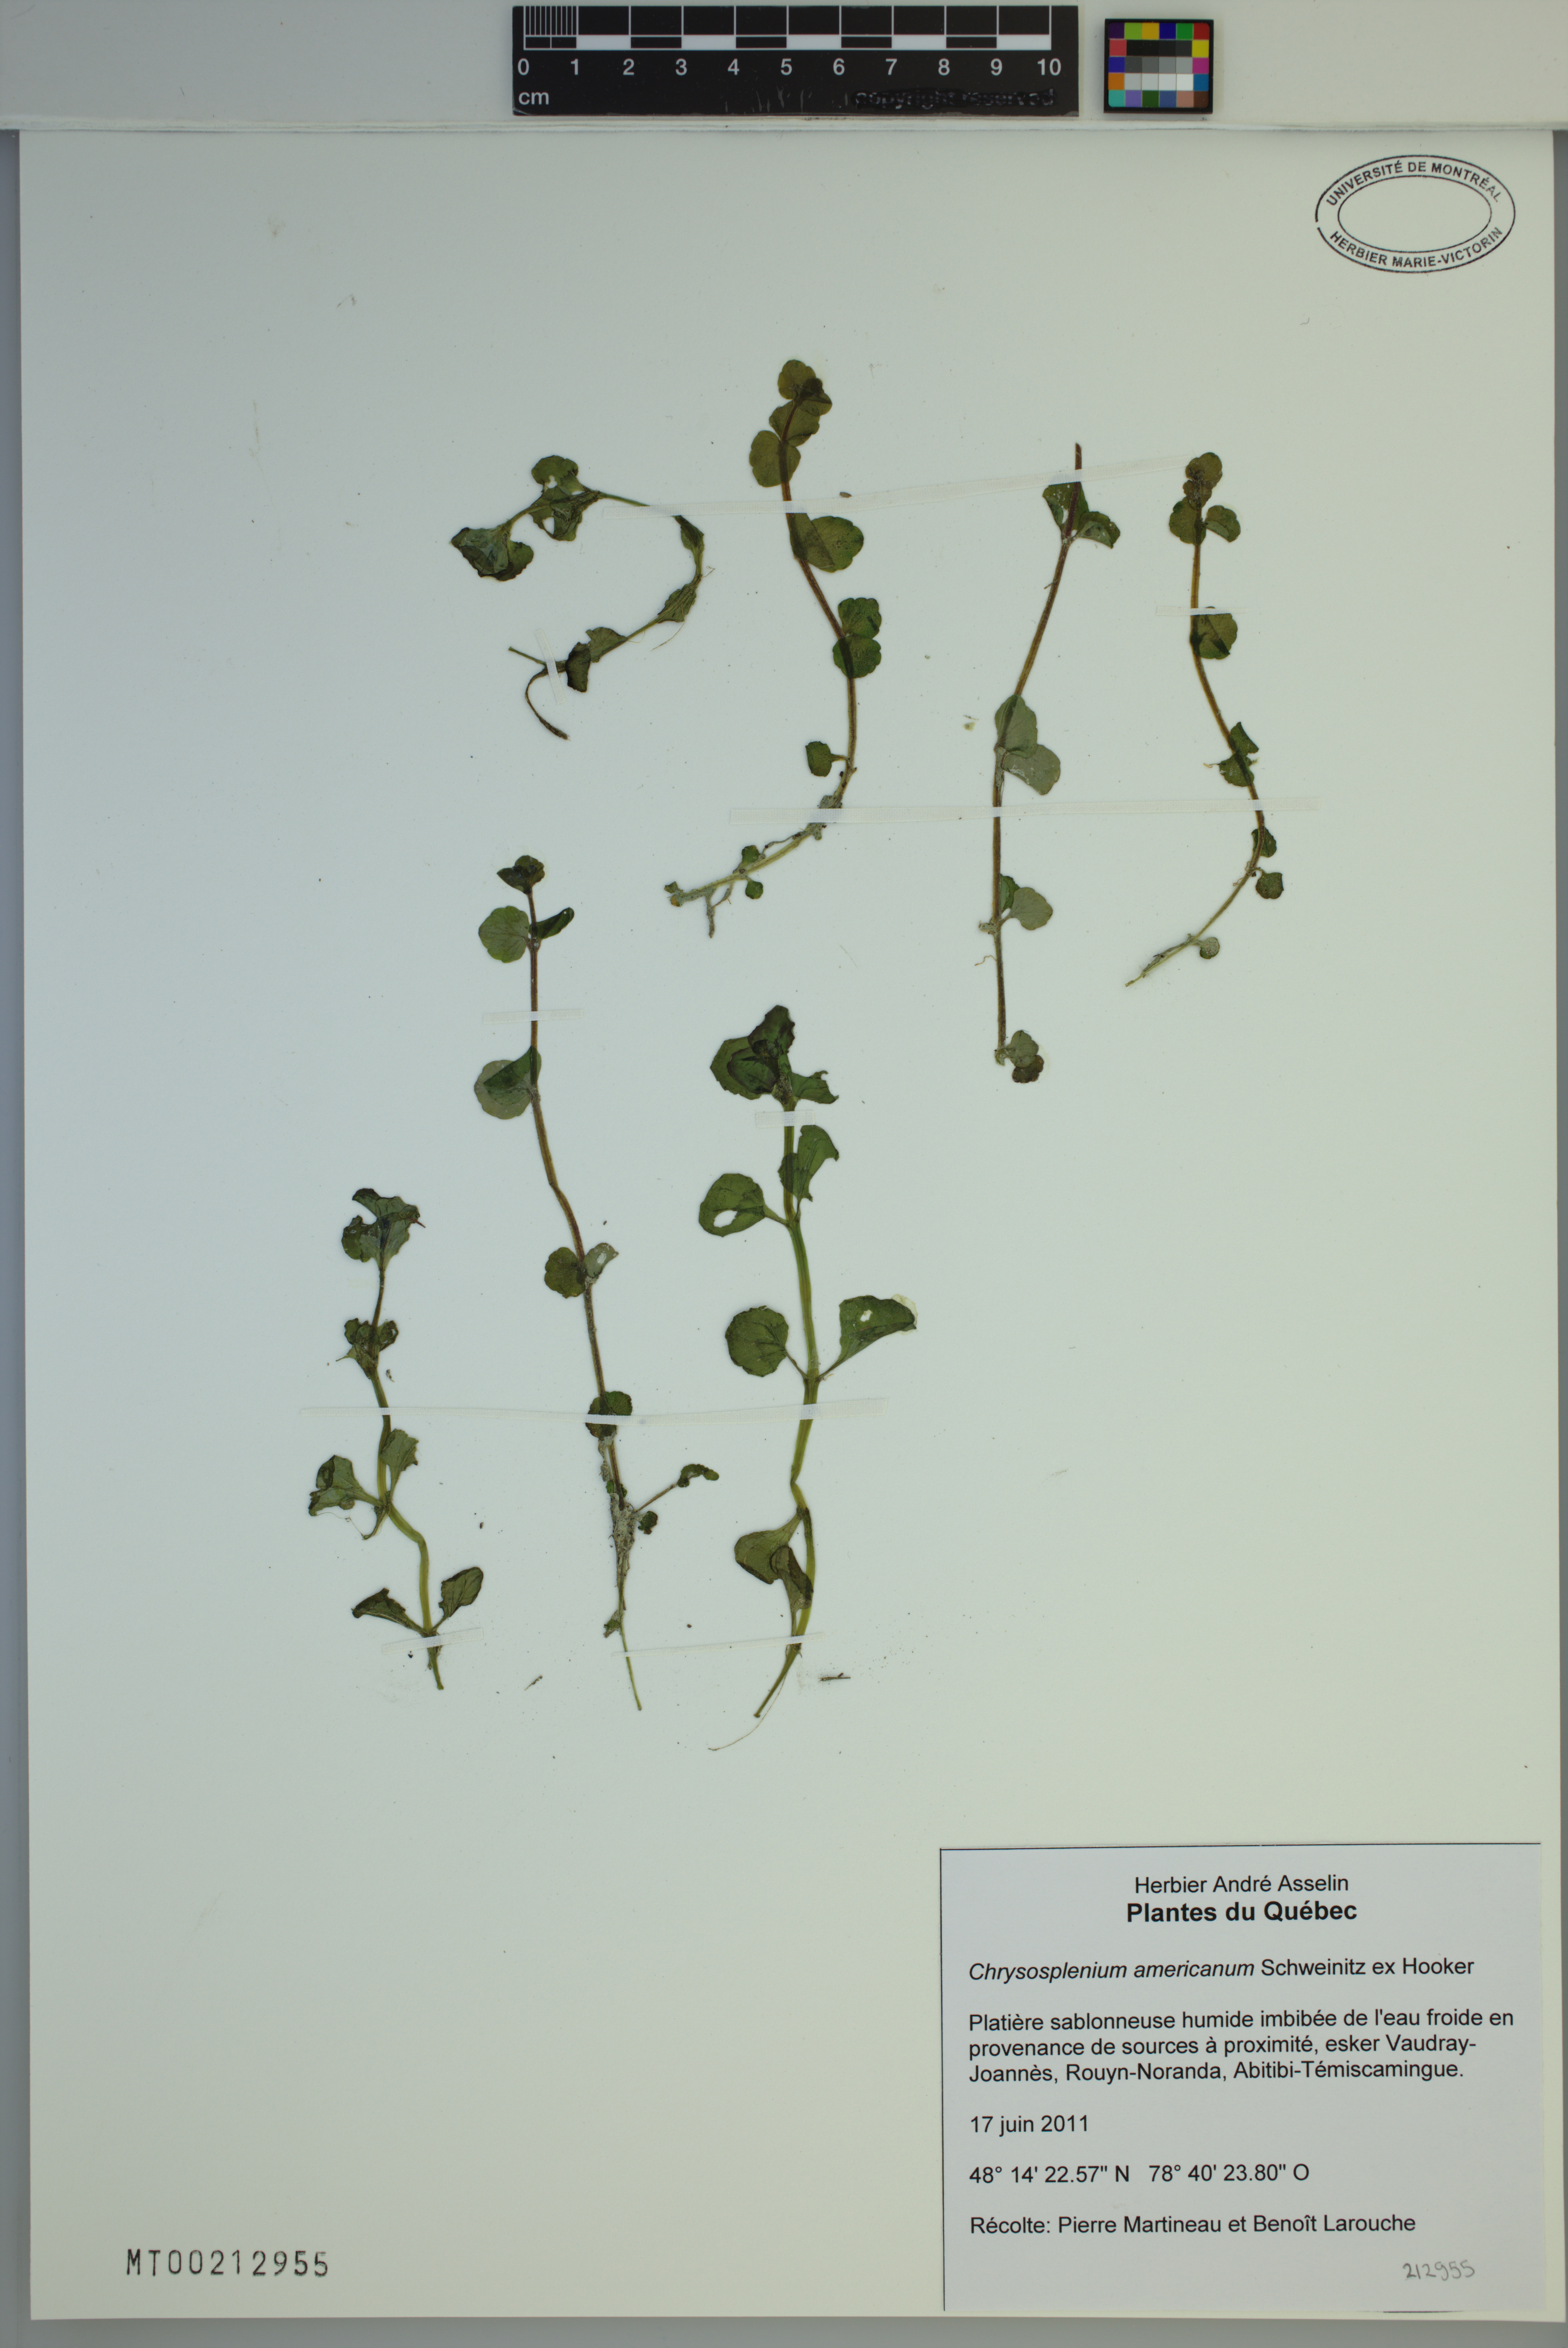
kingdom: Plantae
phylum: Tracheophyta
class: Magnoliopsida
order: Saxifragales
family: Saxifragaceae
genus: Chrysosplenium
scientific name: Chrysosplenium americanum
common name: American golden-saxifrage
